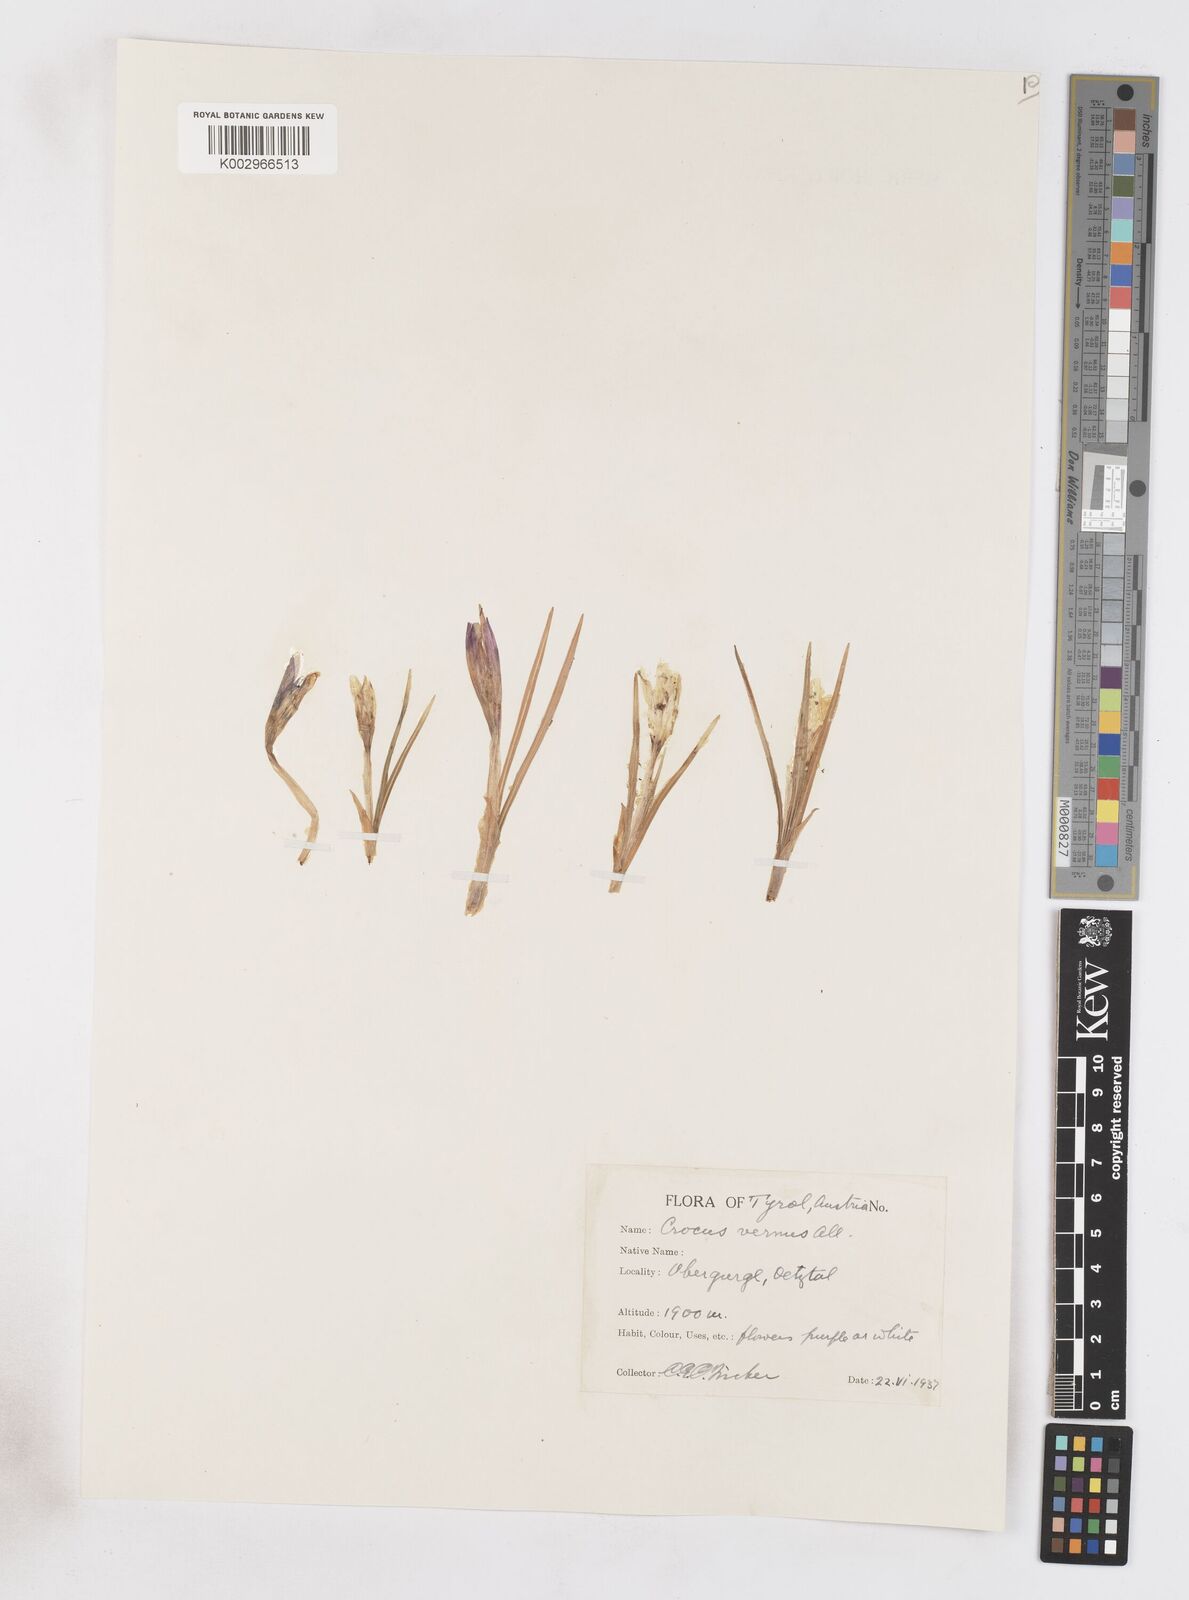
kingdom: Plantae
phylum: Tracheophyta
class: Liliopsida
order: Asparagales
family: Iridaceae
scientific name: Iridaceae
